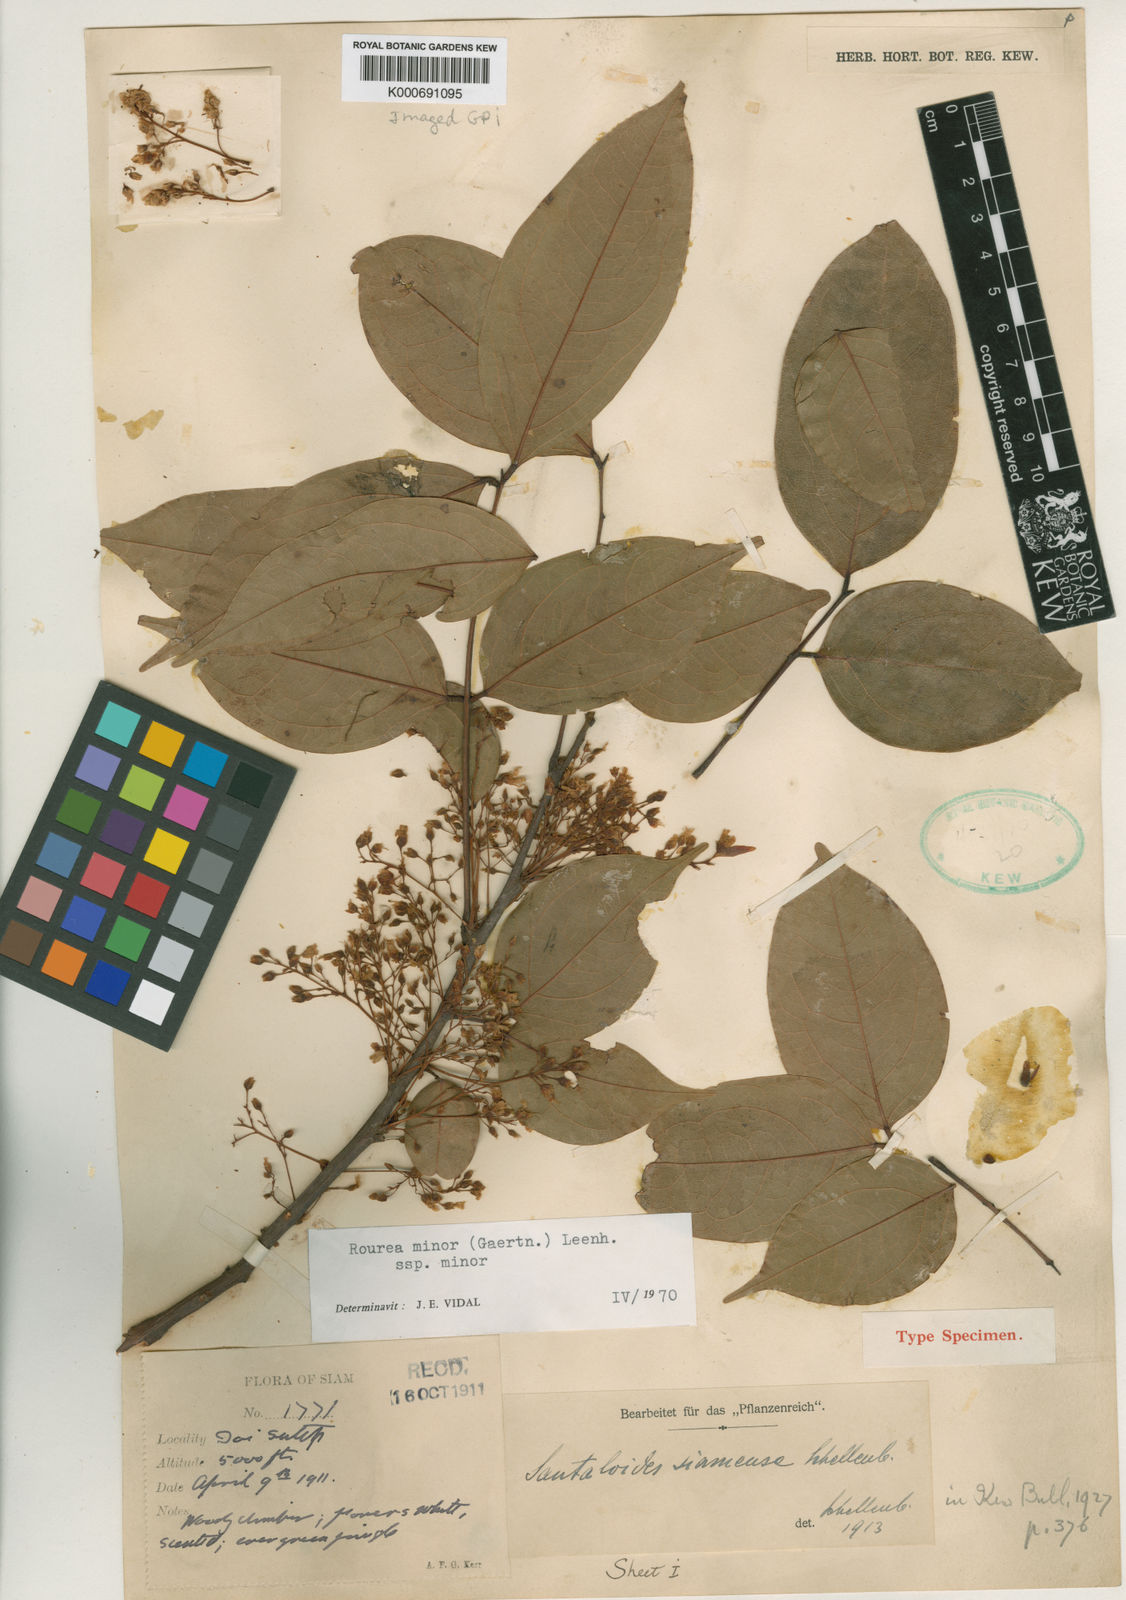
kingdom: Plantae
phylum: Tracheophyta
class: Magnoliopsida
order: Oxalidales
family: Connaraceae
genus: Rourea
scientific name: Rourea
